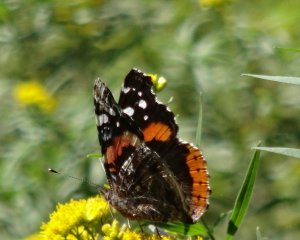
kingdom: Animalia
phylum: Arthropoda
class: Insecta
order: Lepidoptera
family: Nymphalidae
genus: Vanessa
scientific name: Vanessa atalanta
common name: Red Admiral
